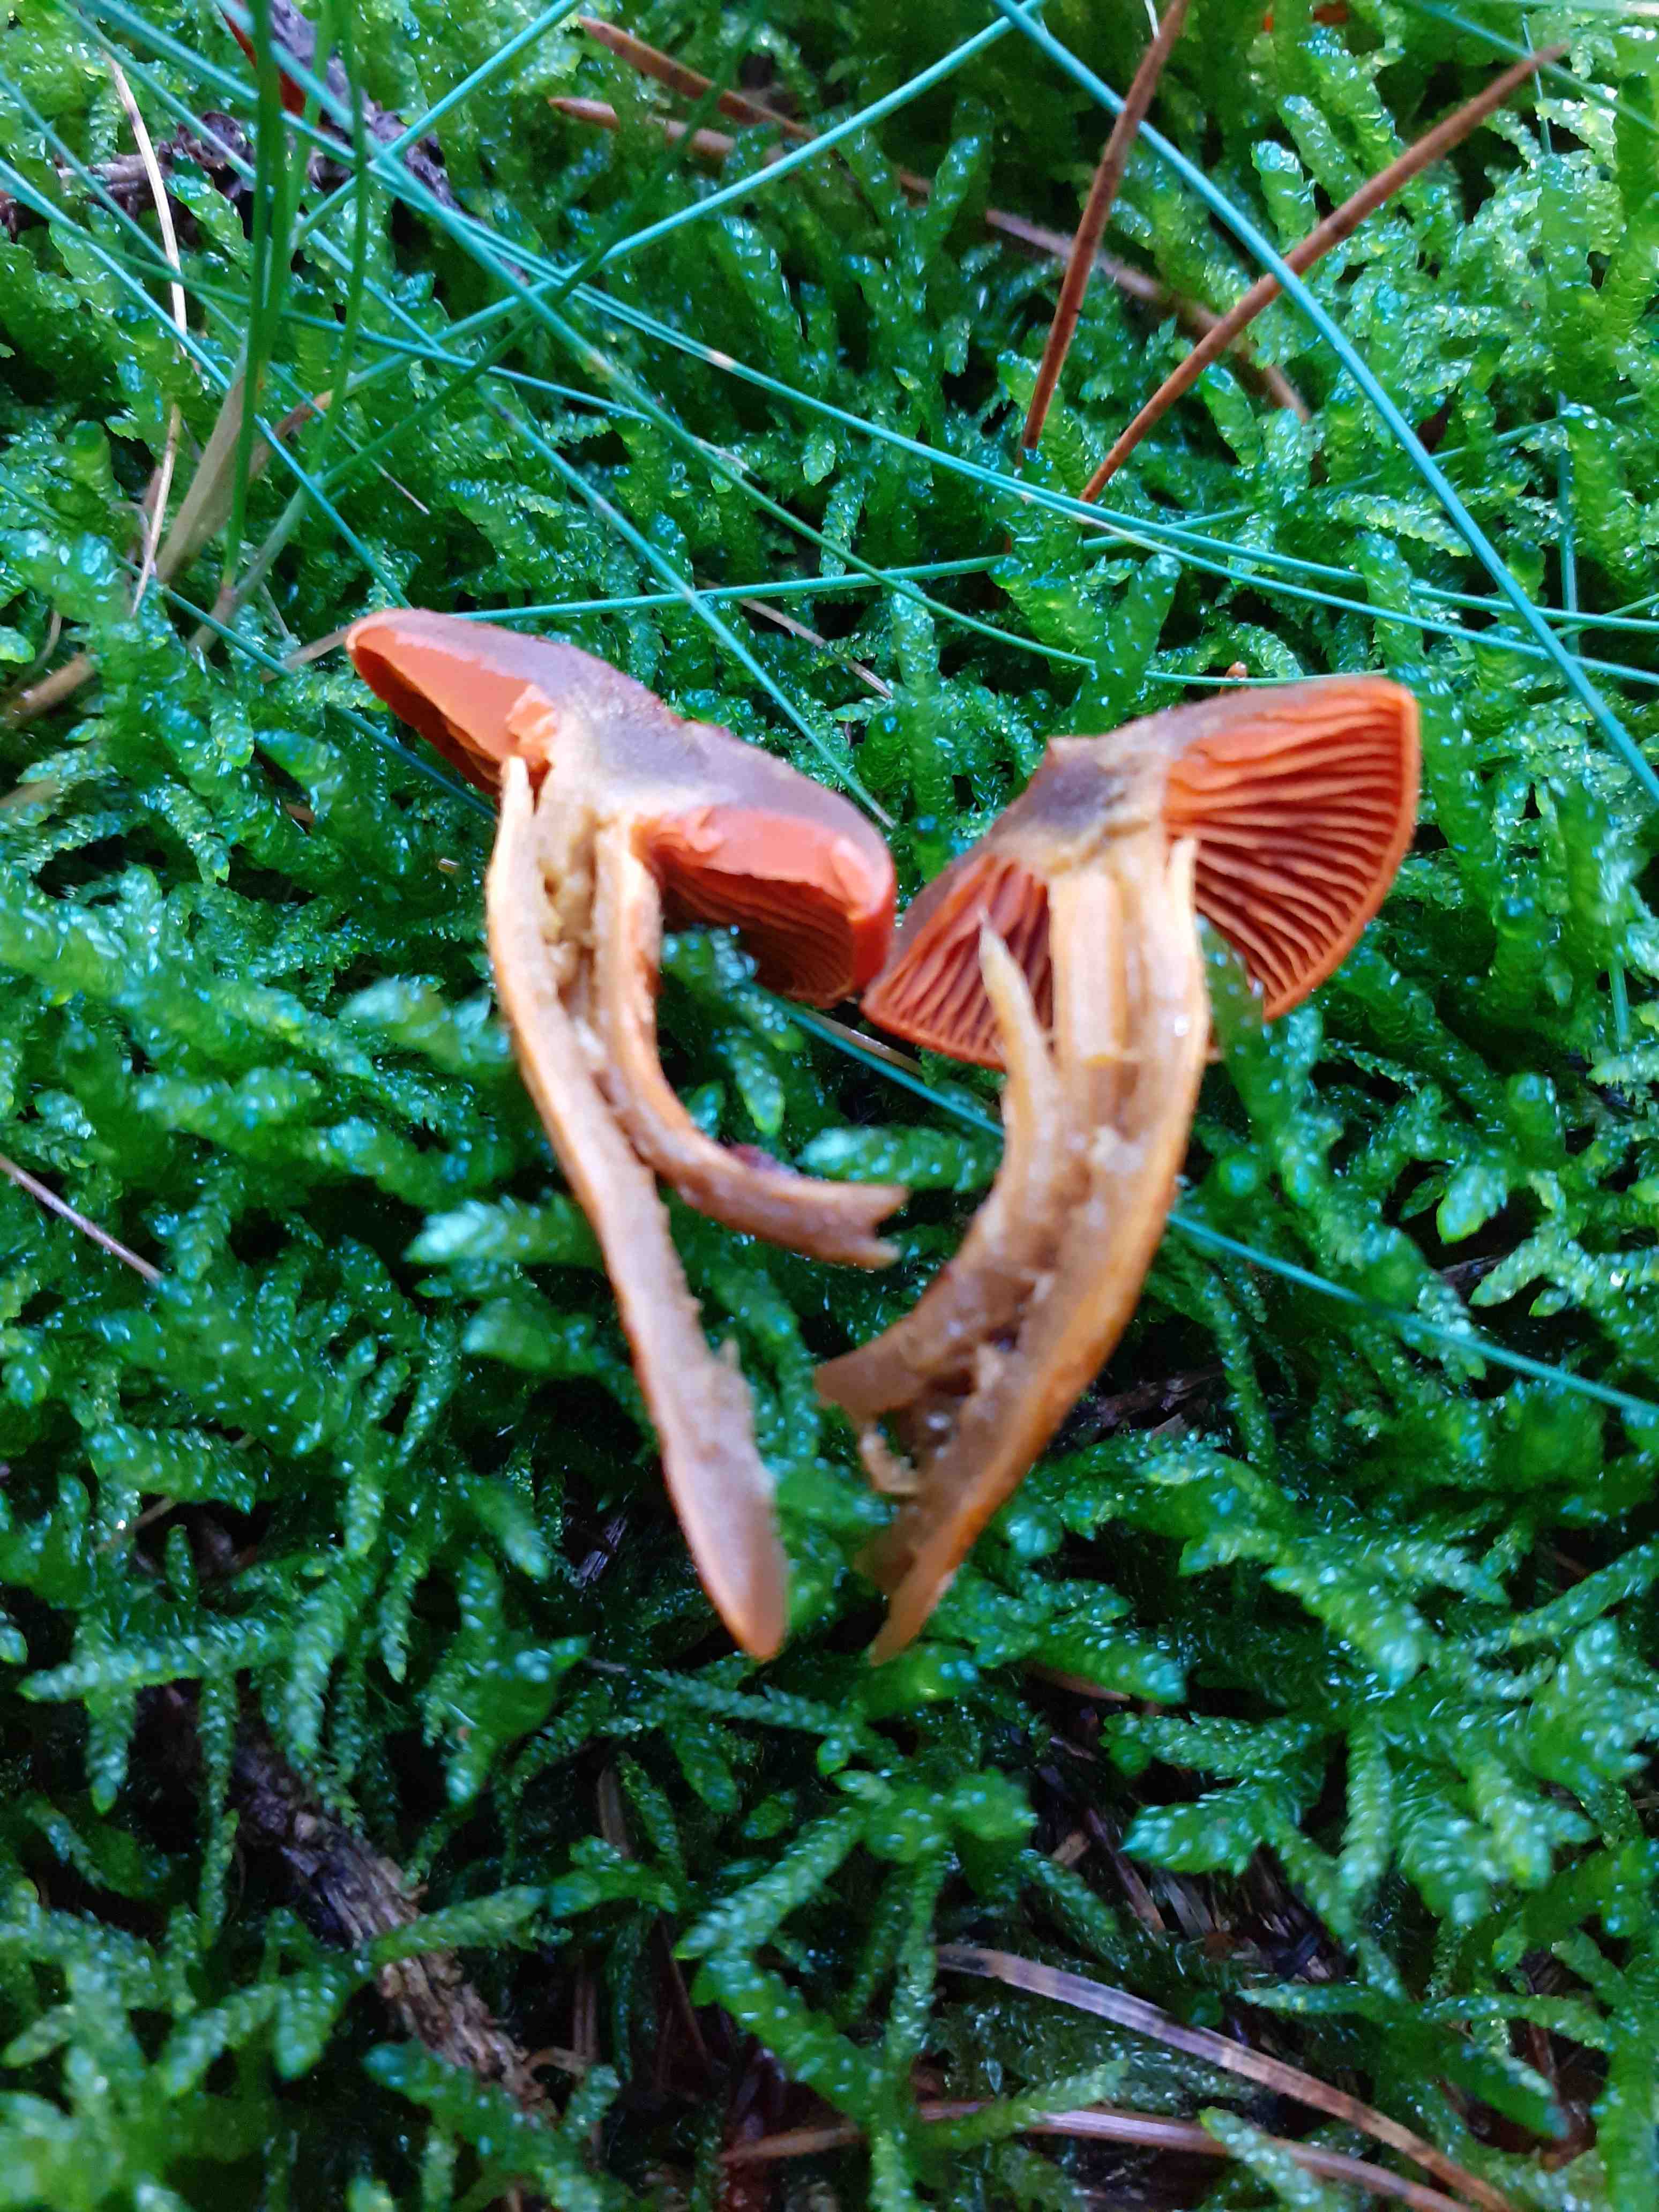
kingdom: Fungi
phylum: Basidiomycota
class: Agaricomycetes
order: Agaricales
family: Cortinariaceae
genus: Cortinarius
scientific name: Cortinarius malicorius
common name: grønkødet slørhat
